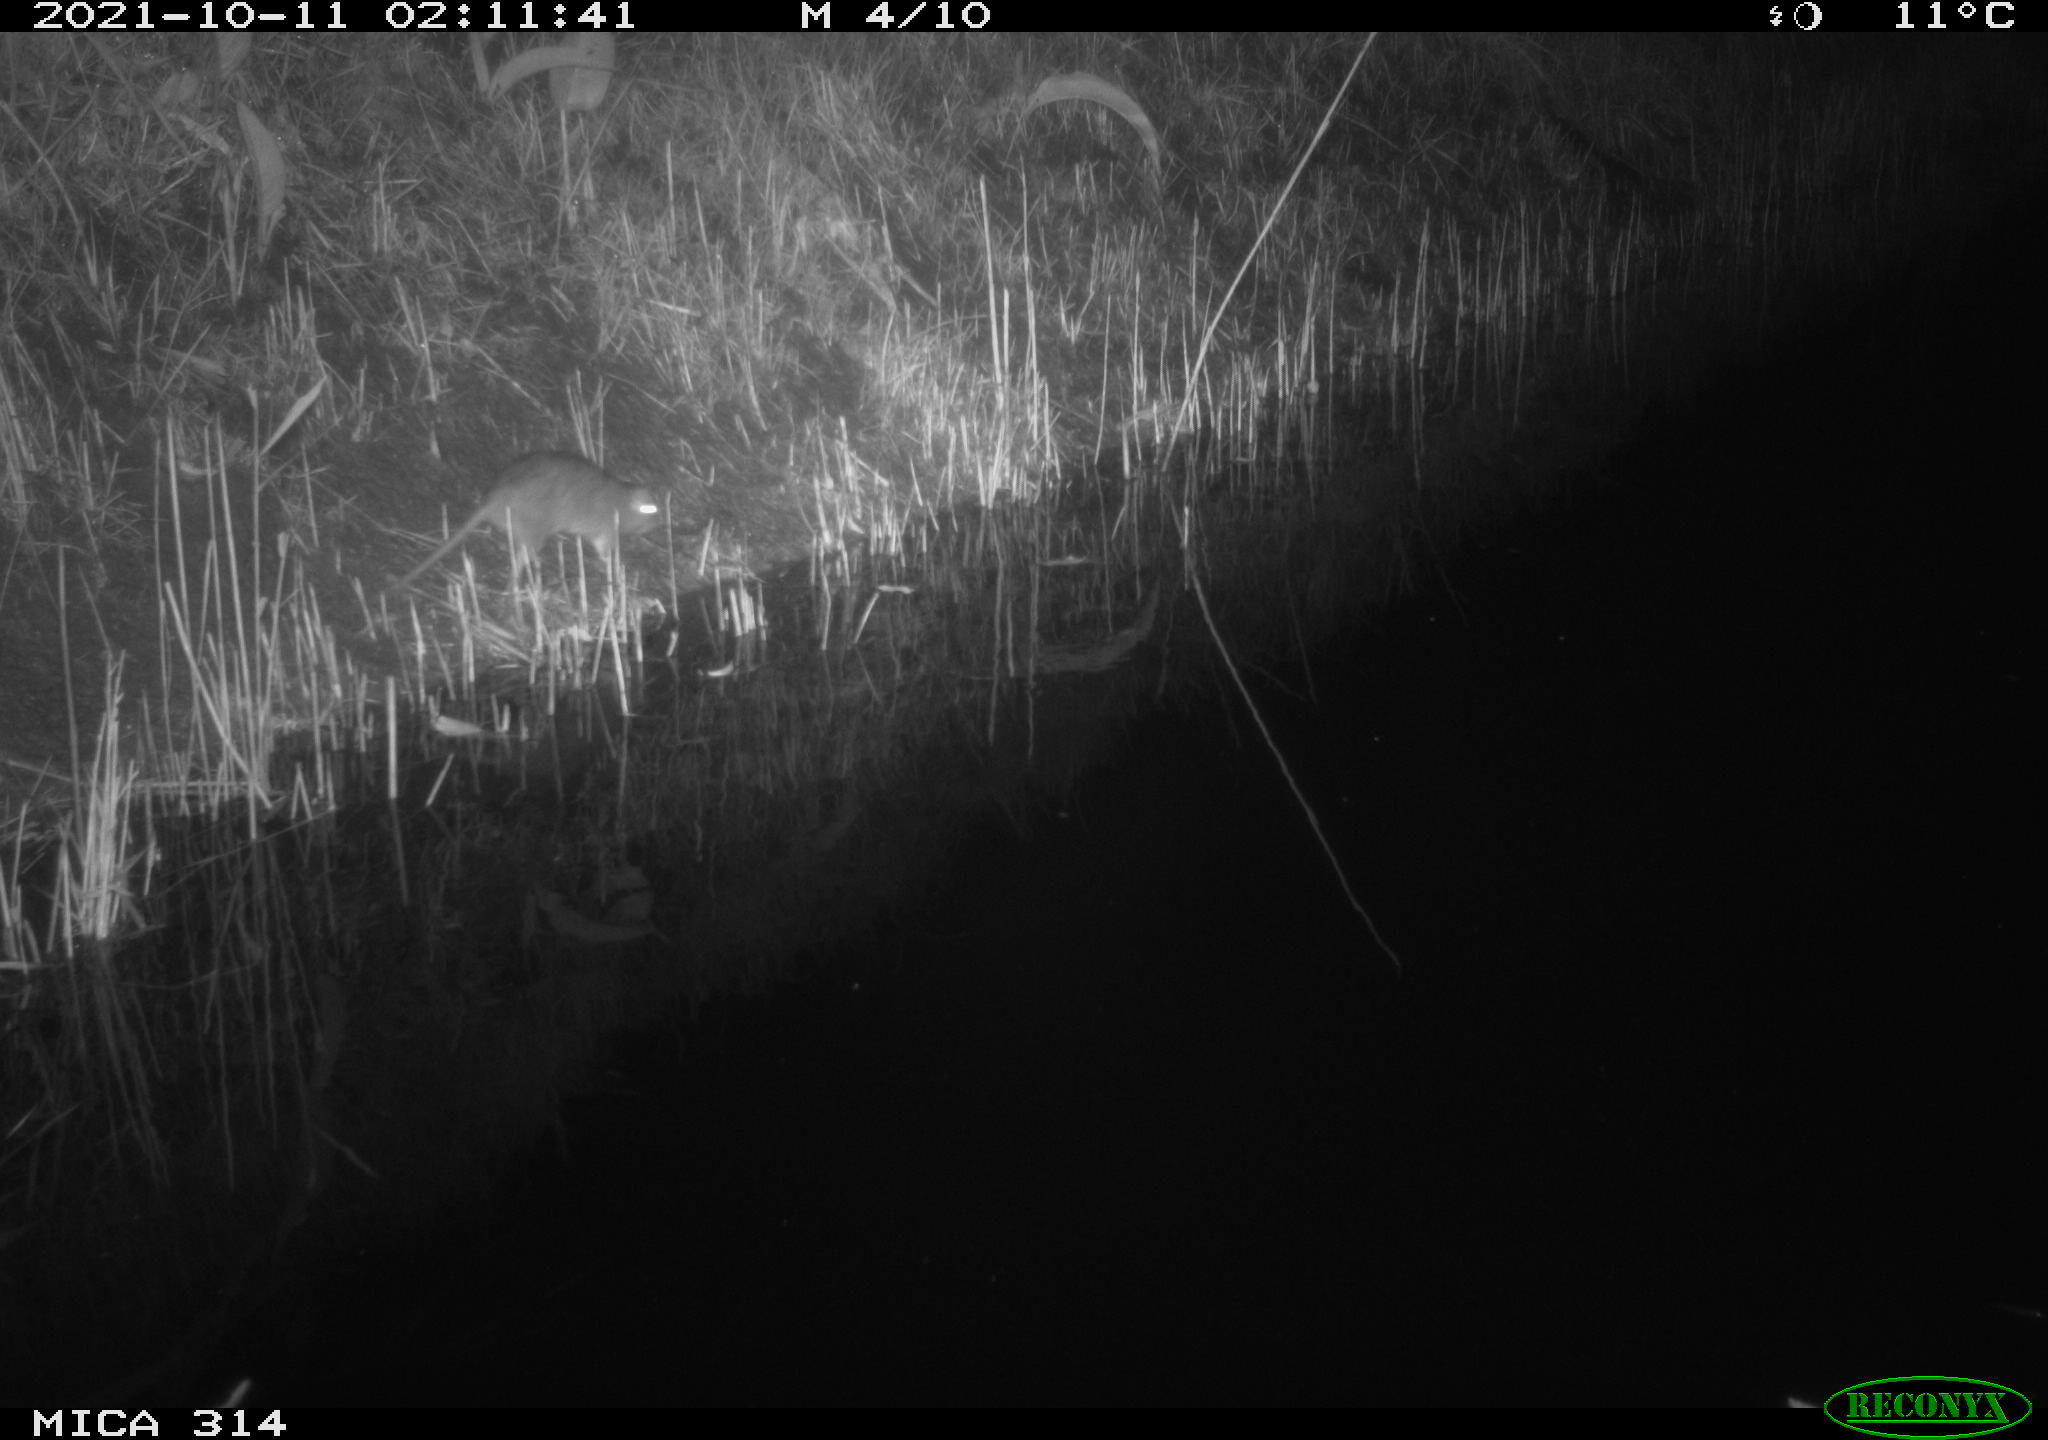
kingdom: Animalia
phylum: Chordata
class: Mammalia
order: Rodentia
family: Muridae
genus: Rattus
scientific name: Rattus norvegicus
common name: Brown rat
